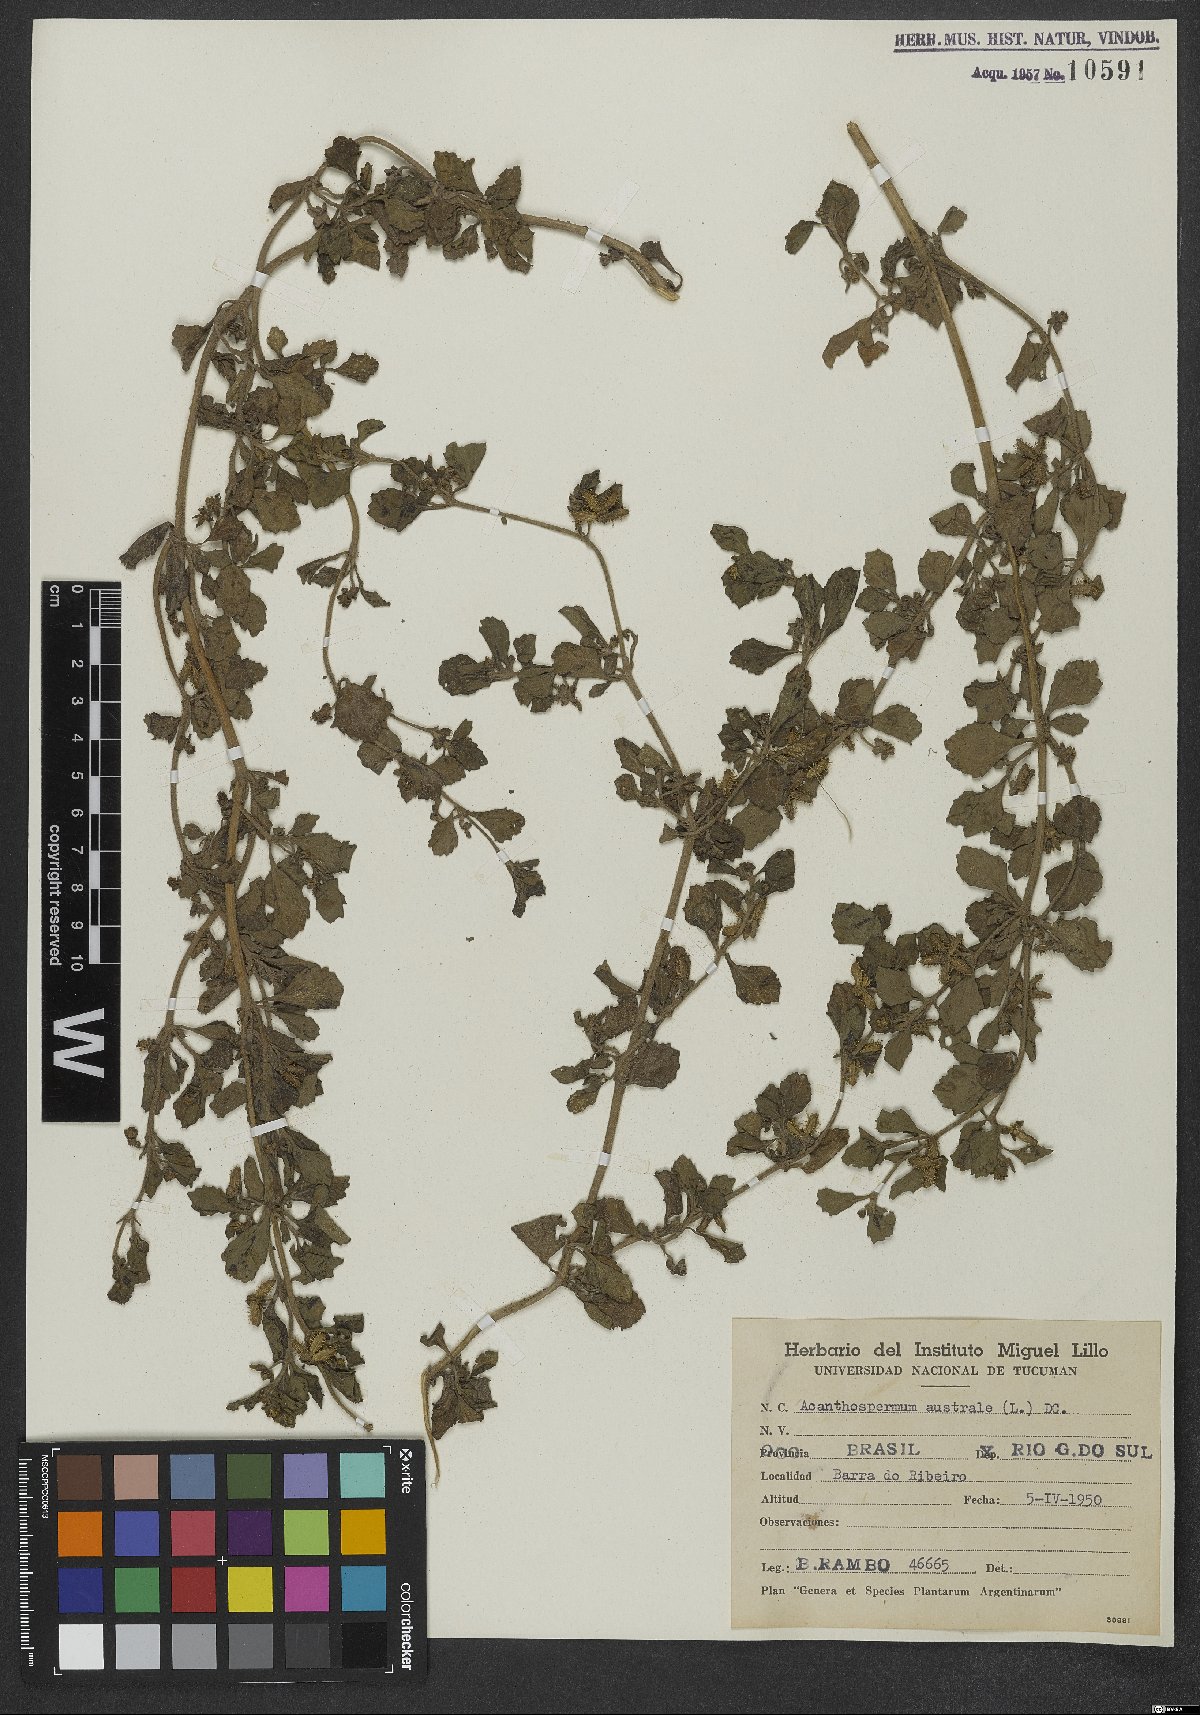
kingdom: Plantae
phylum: Tracheophyta
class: Magnoliopsida
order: Asterales
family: Asteraceae
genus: Acanthospermum
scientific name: Acanthospermum australe
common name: Paraguayan starbur
